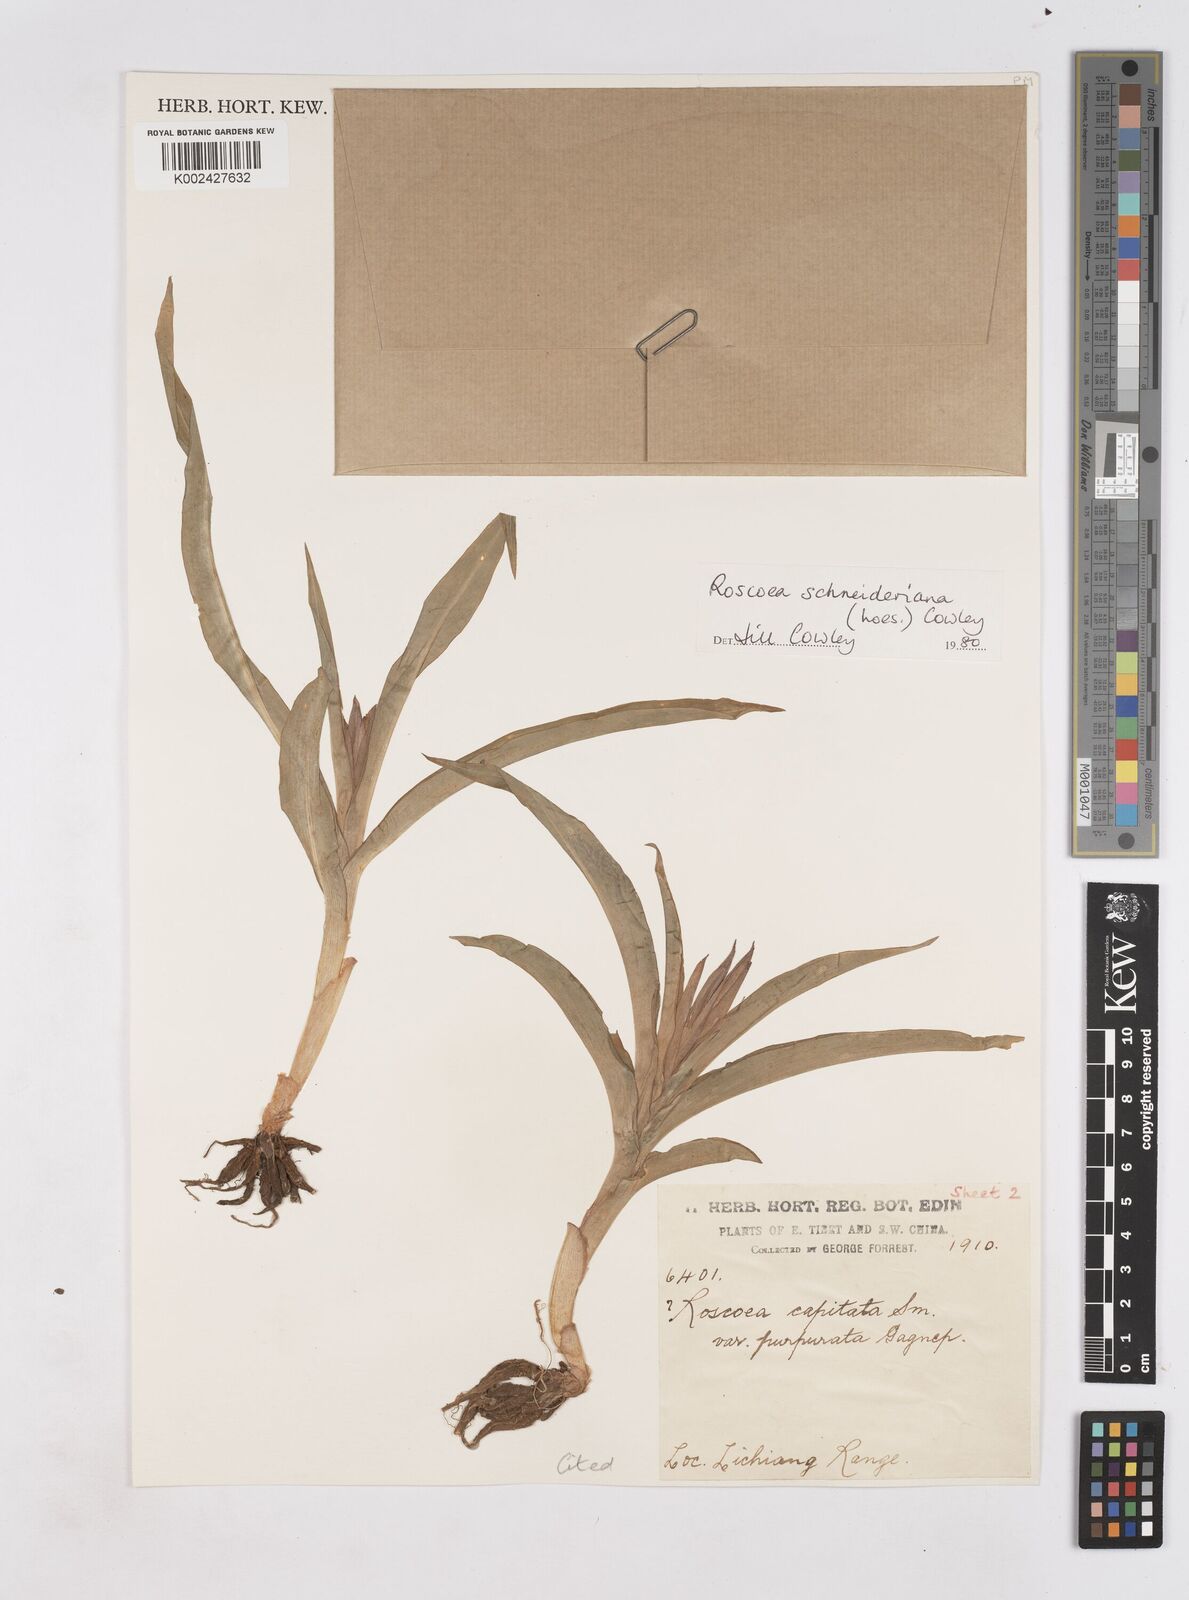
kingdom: Plantae
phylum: Tracheophyta
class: Liliopsida
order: Zingiberales
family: Zingiberaceae
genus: Roscoea
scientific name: Roscoea schneideriana
